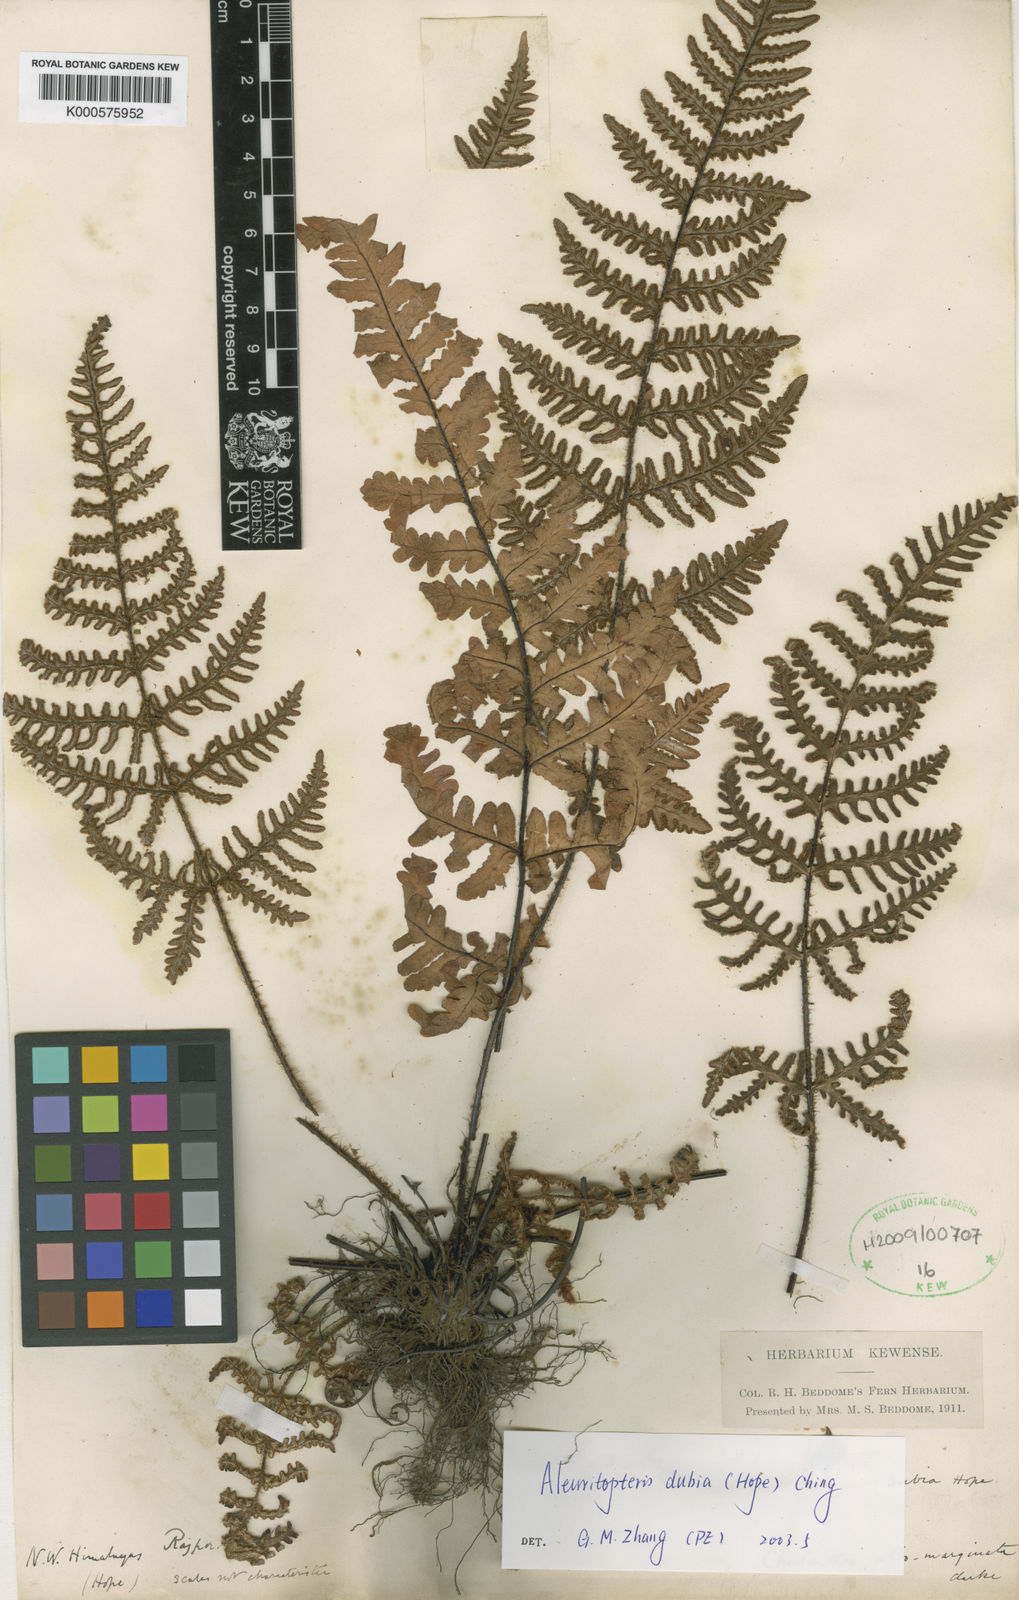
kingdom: Plantae
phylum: Tracheophyta
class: Polypodiopsida
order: Polypodiales
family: Pteridaceae
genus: Aleuritopteris
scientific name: Aleuritopteris dubia
